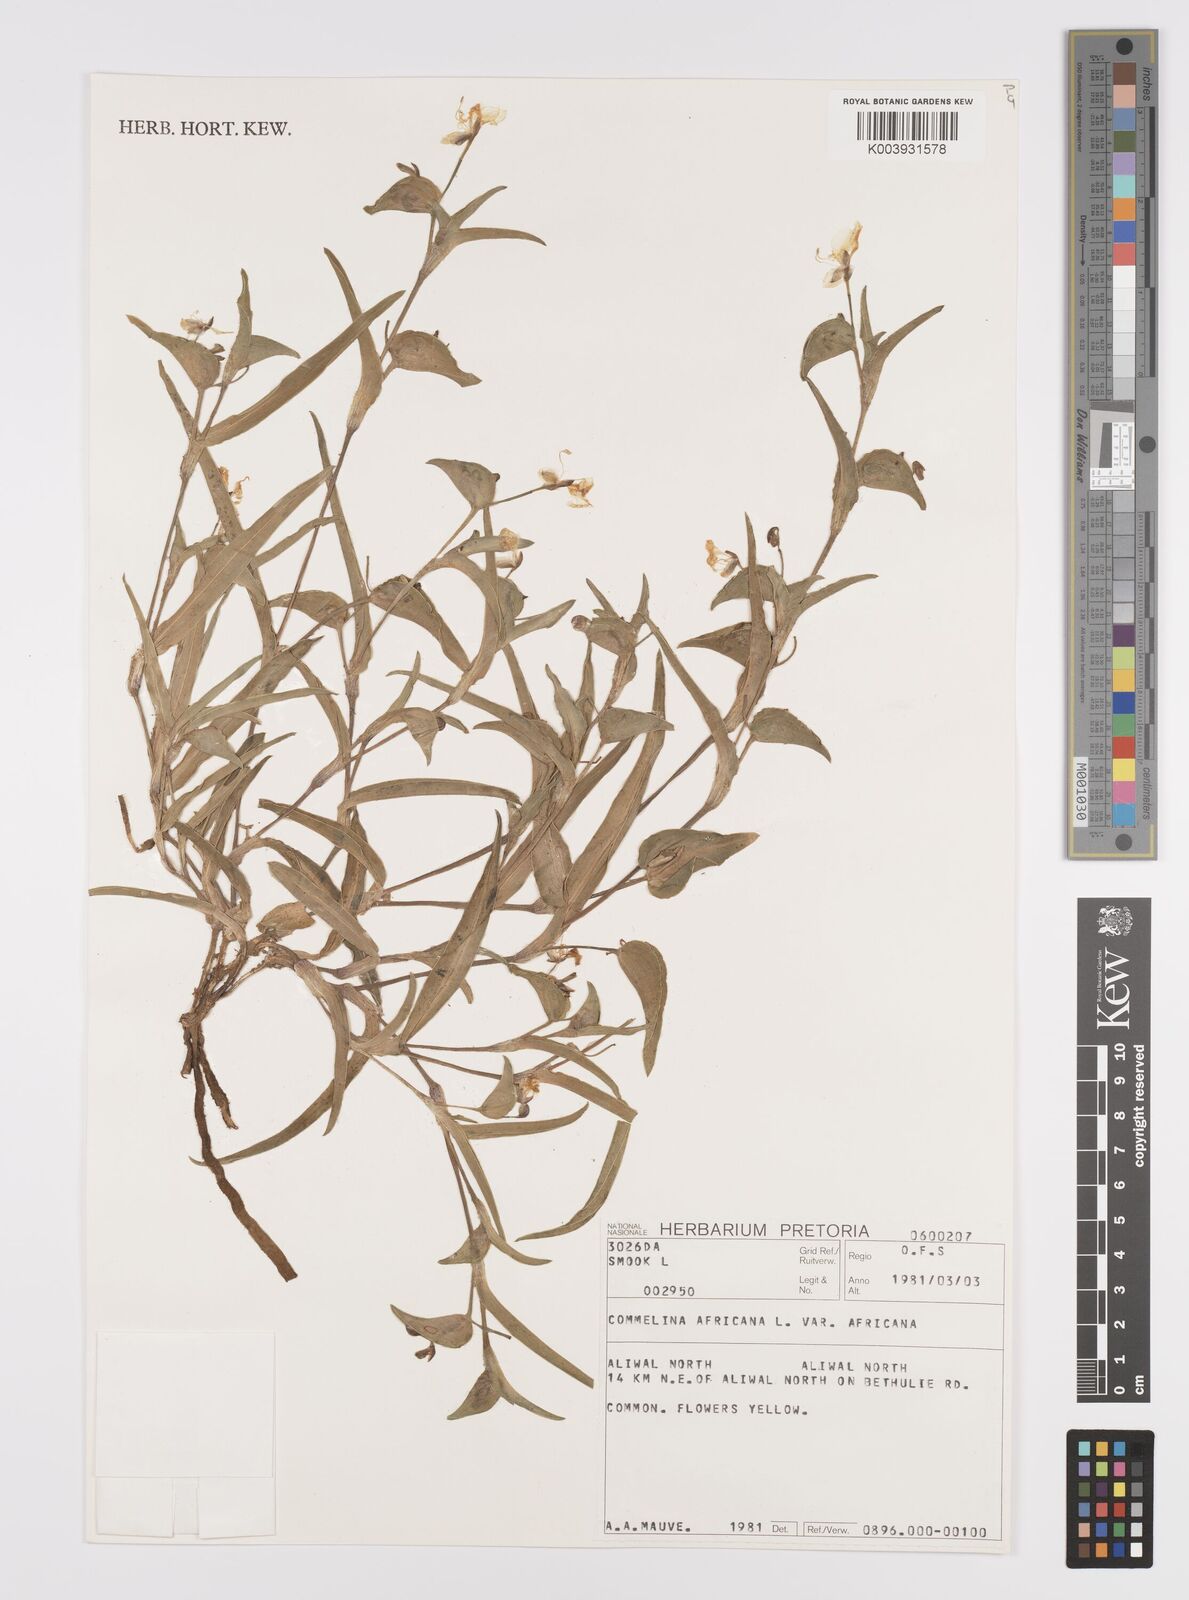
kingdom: Plantae
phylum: Tracheophyta
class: Liliopsida
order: Commelinales
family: Commelinaceae
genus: Commelina
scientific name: Commelina africana
